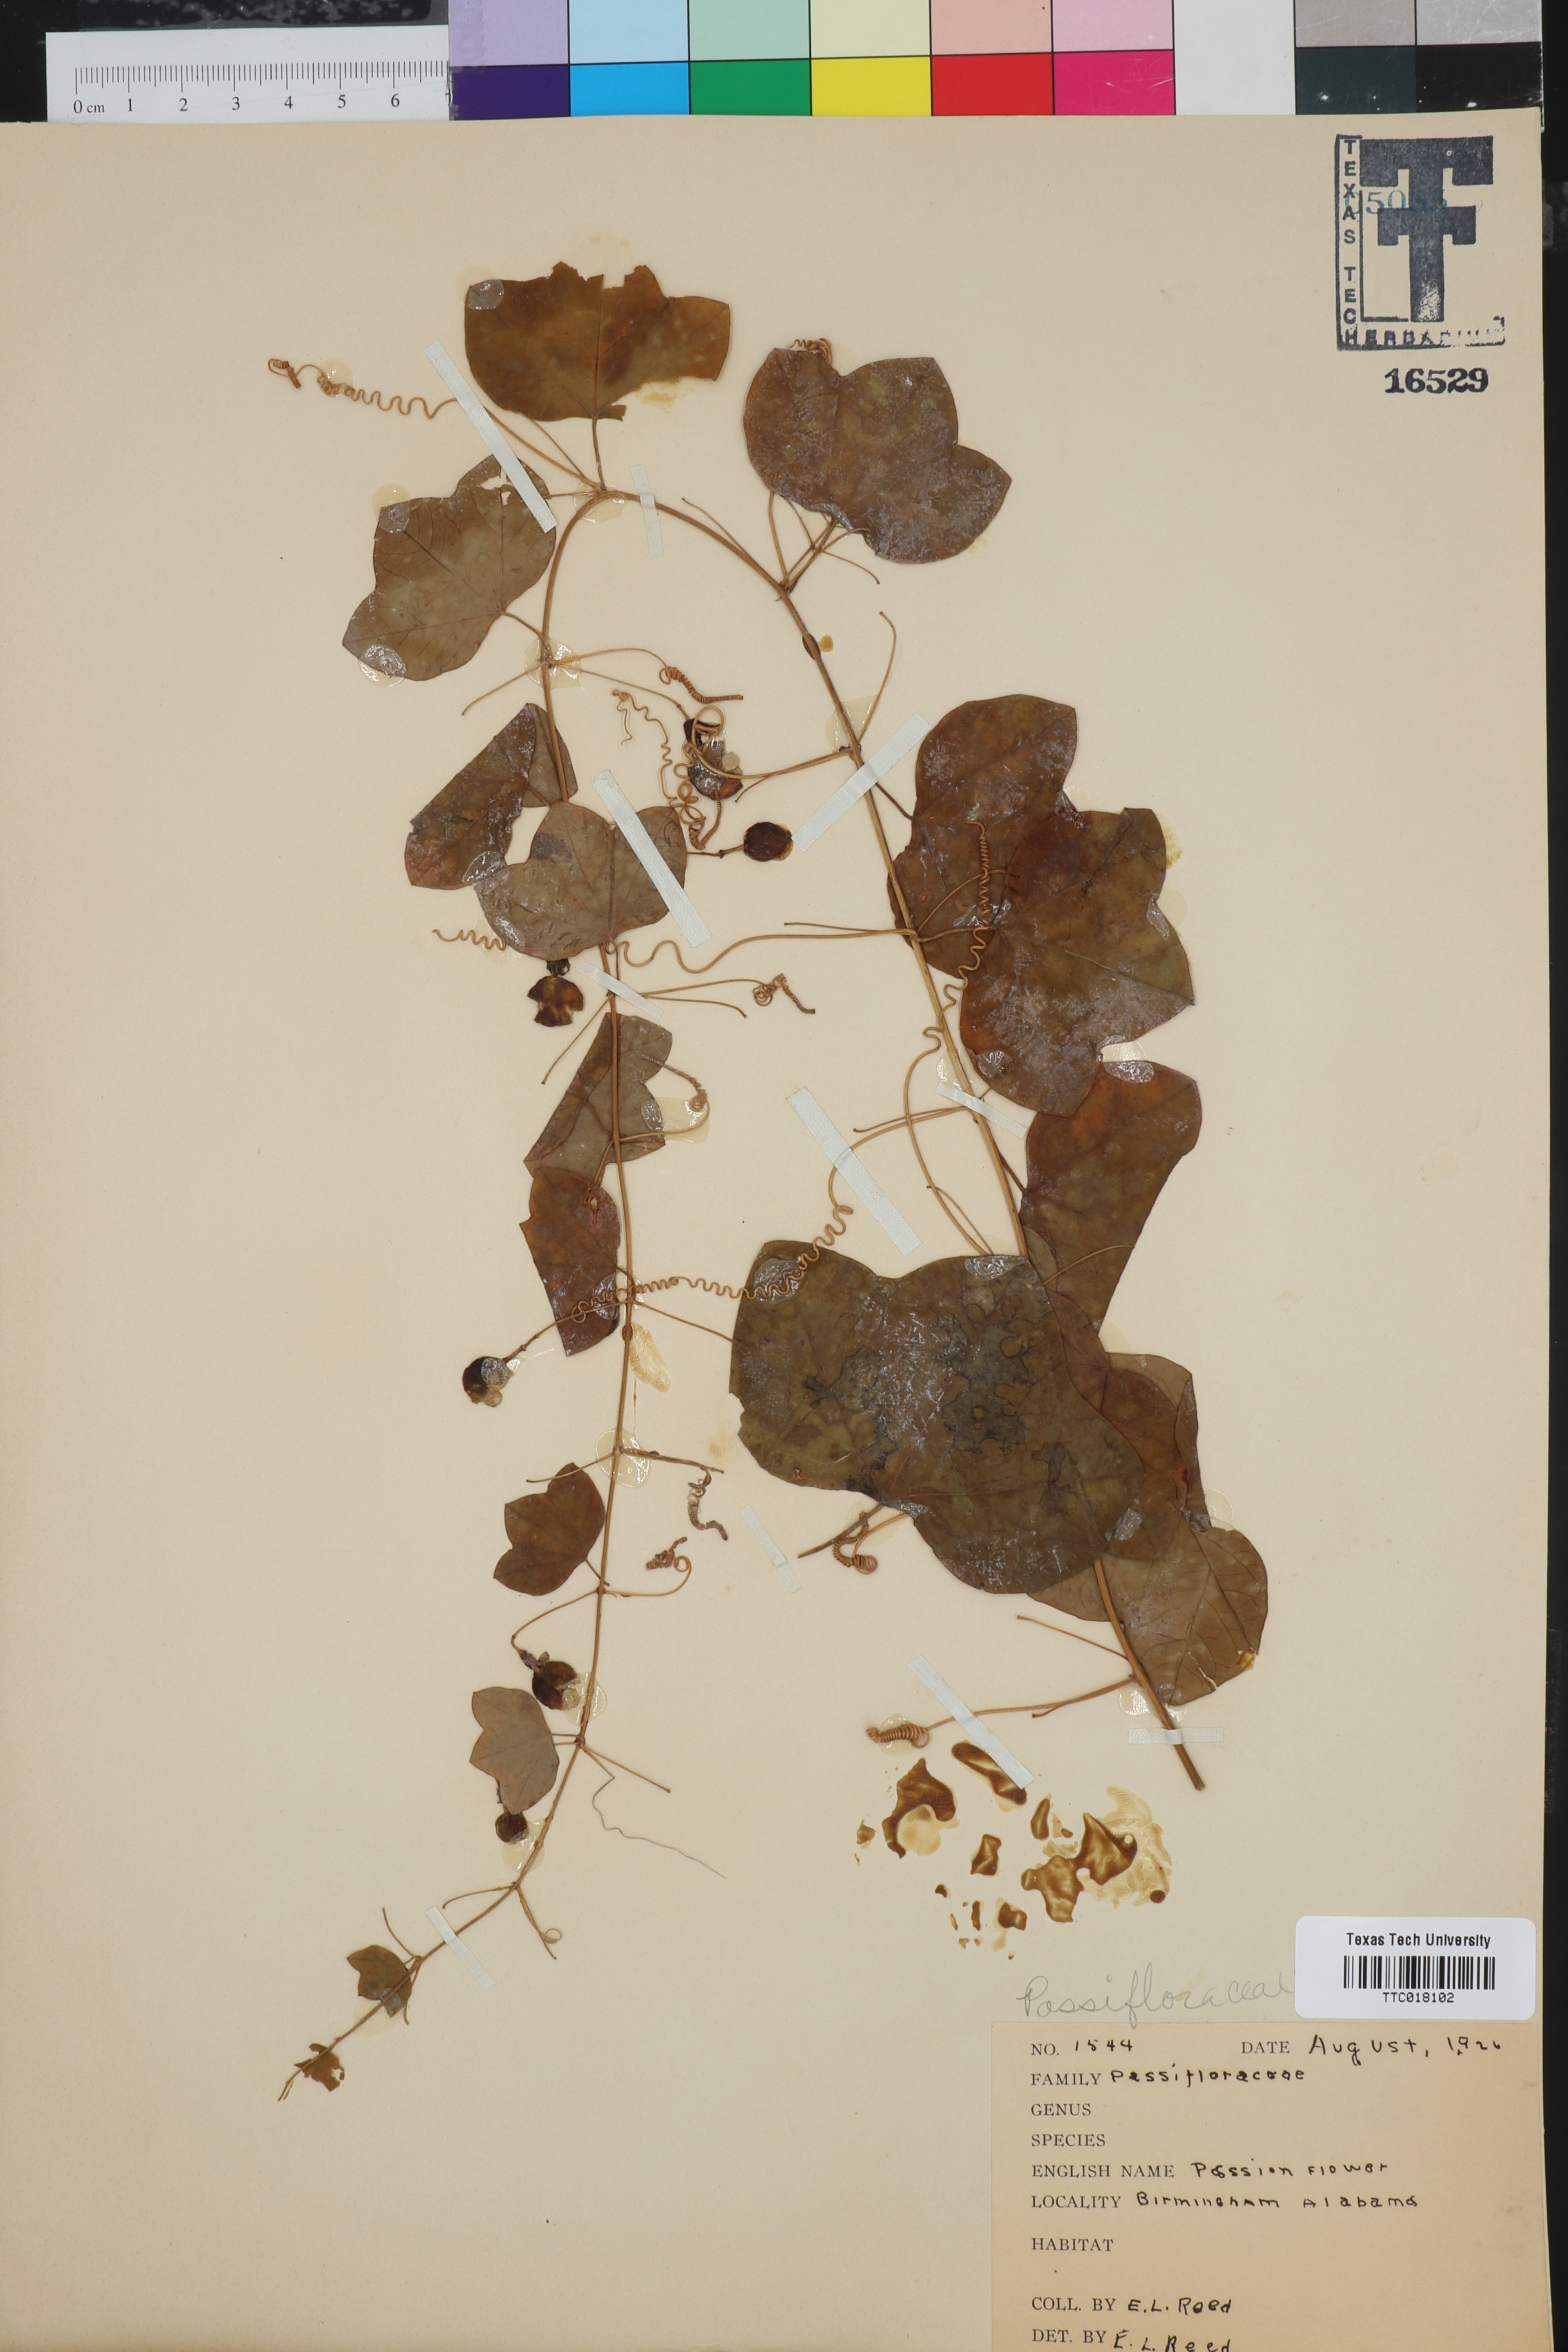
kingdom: Plantae
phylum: Tracheophyta
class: Magnoliopsida
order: Malpighiales
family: Passifloraceae
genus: Passiflora
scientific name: Passiflora incarnata
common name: Apricot-vine
